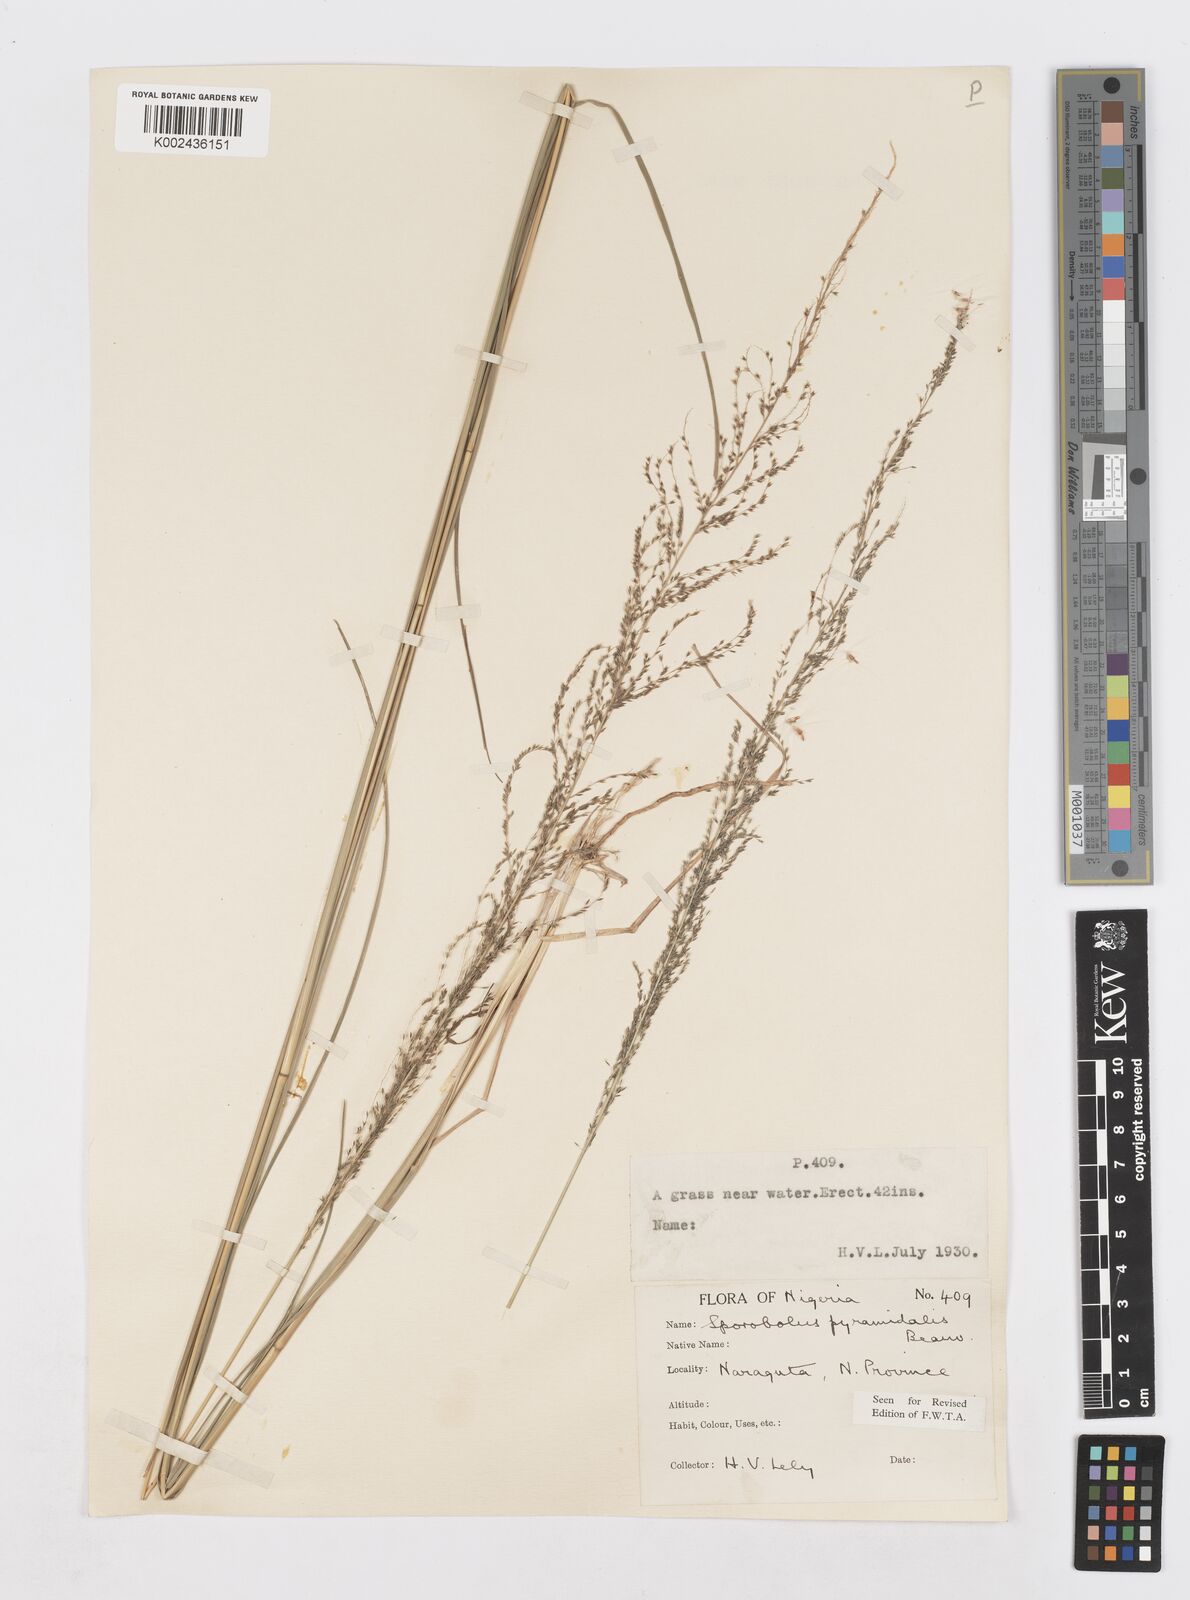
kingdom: Plantae
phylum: Tracheophyta
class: Liliopsida
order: Poales
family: Poaceae
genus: Sporobolus
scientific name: Sporobolus pyramidalis
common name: West indian dropseed
